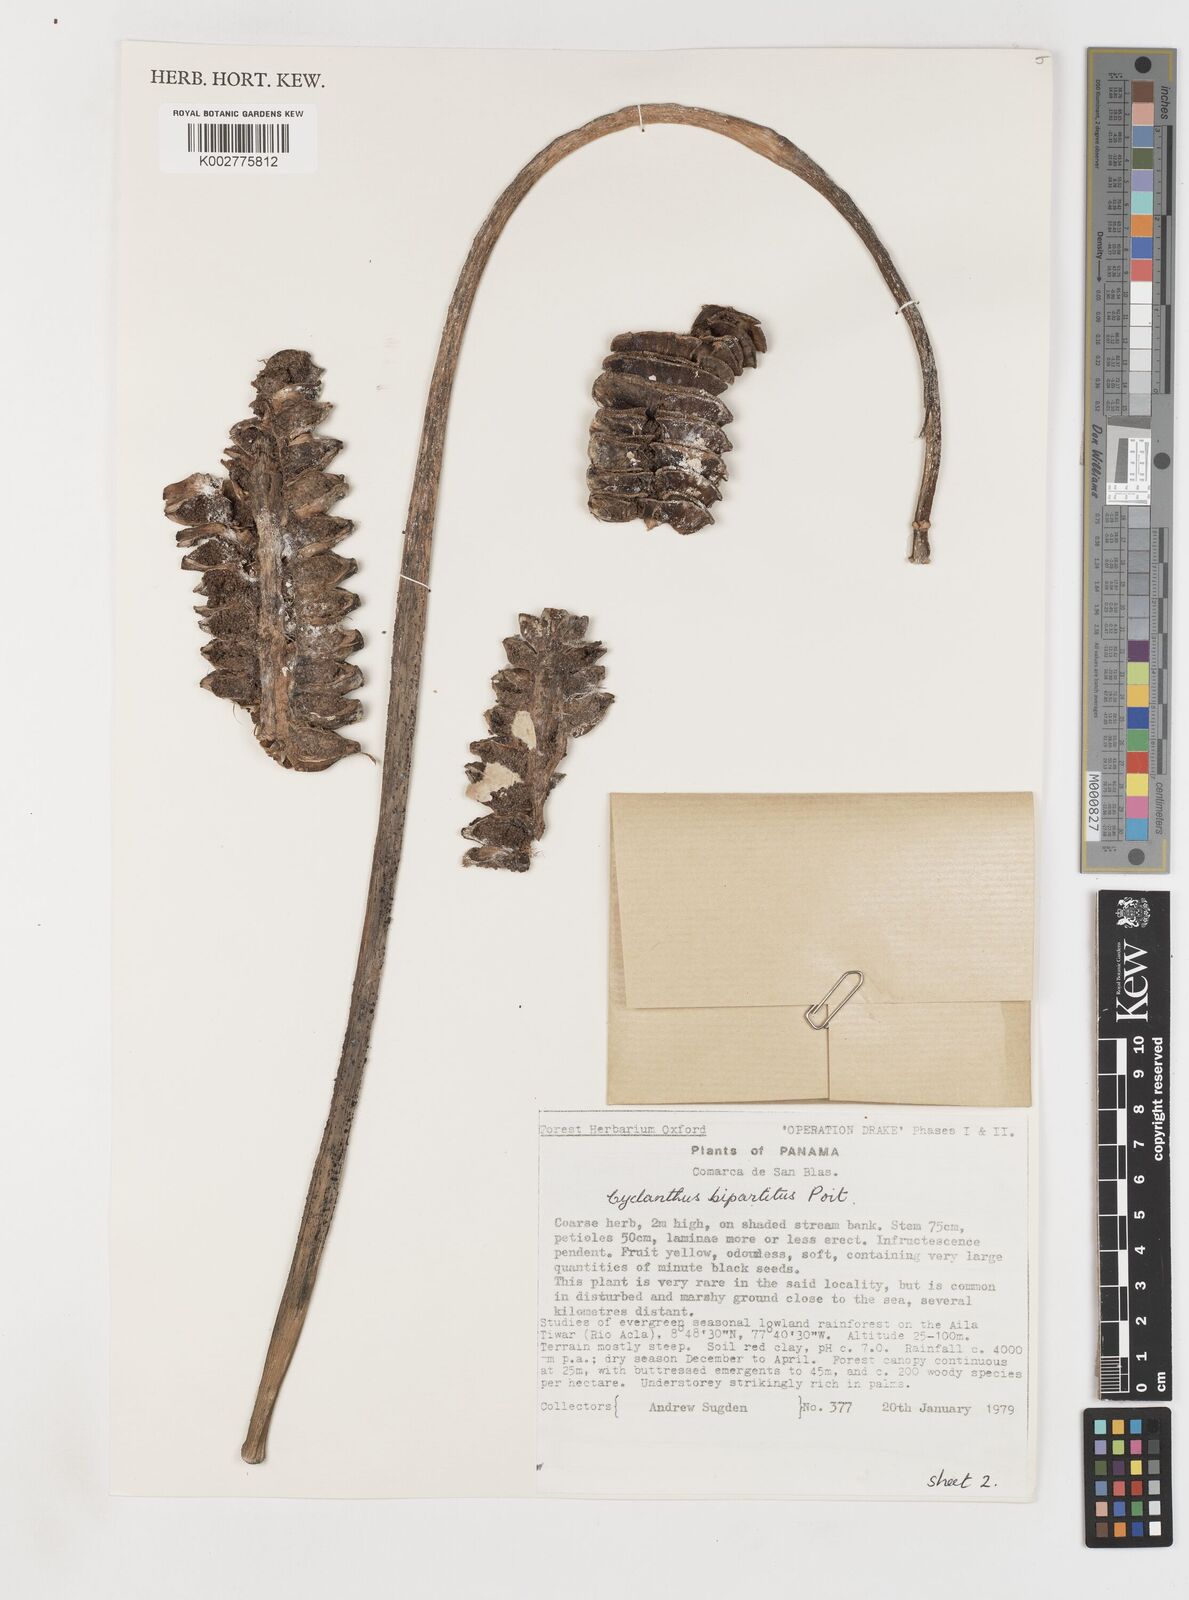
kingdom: Plantae
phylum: Tracheophyta
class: Liliopsida
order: Pandanales
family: Cyclanthaceae
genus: Cyclanthus
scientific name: Cyclanthus bipartitus
